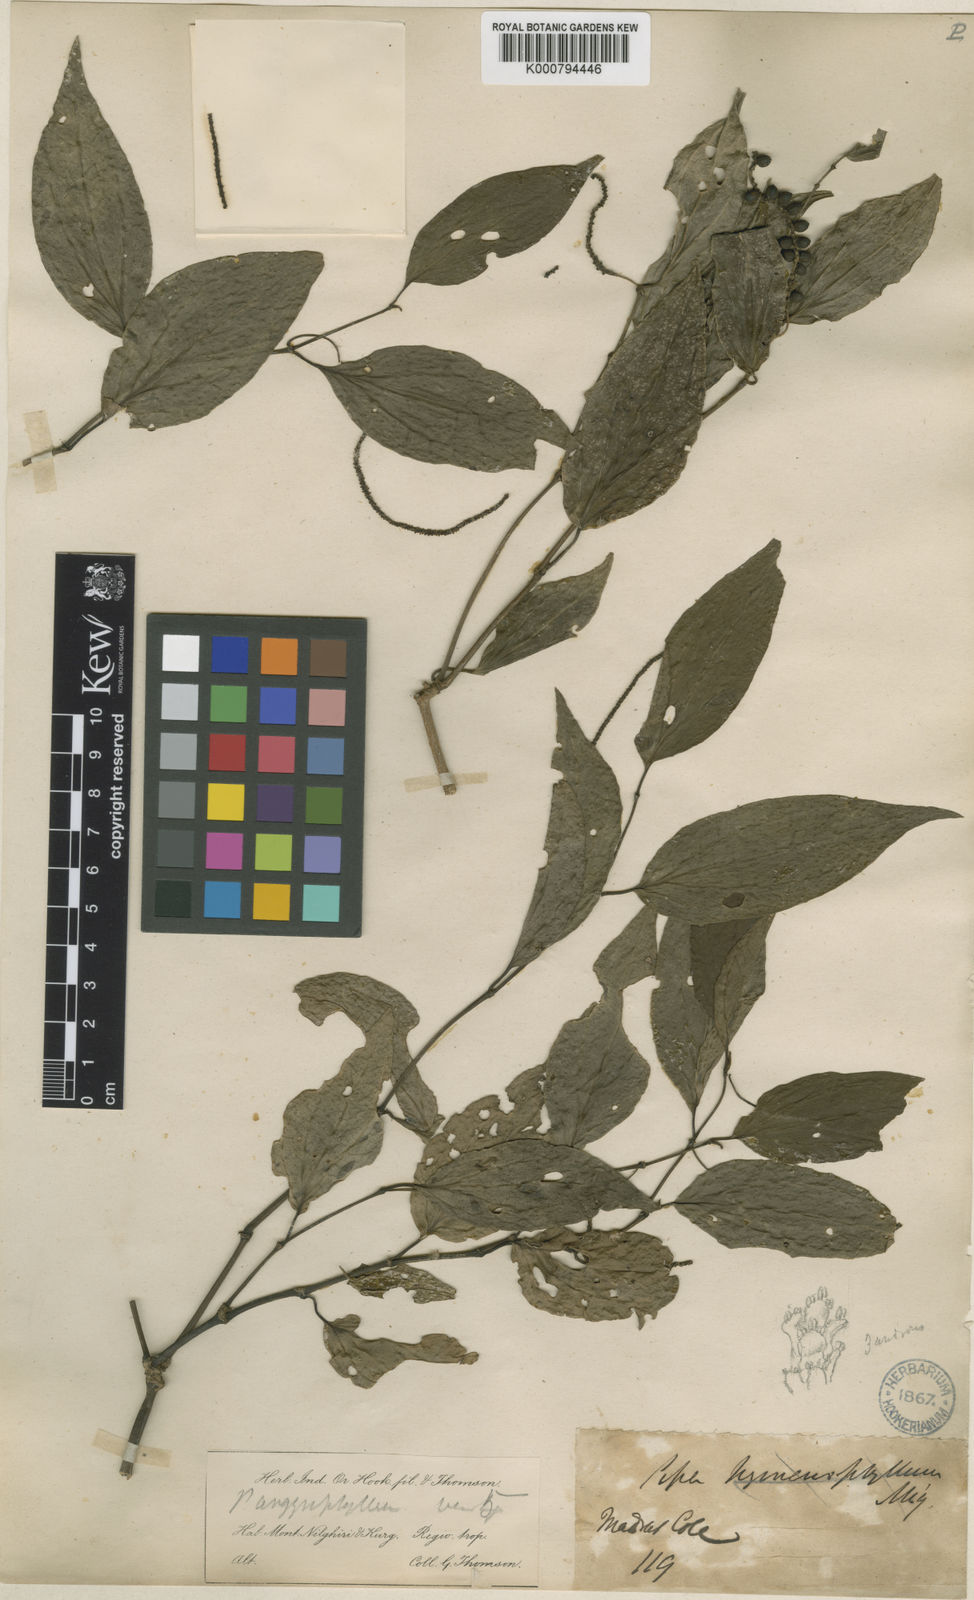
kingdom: Plantae
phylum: Tracheophyta
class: Magnoliopsida
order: Piperales
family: Piperaceae
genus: Piper
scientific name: Piper argyrophyllum
